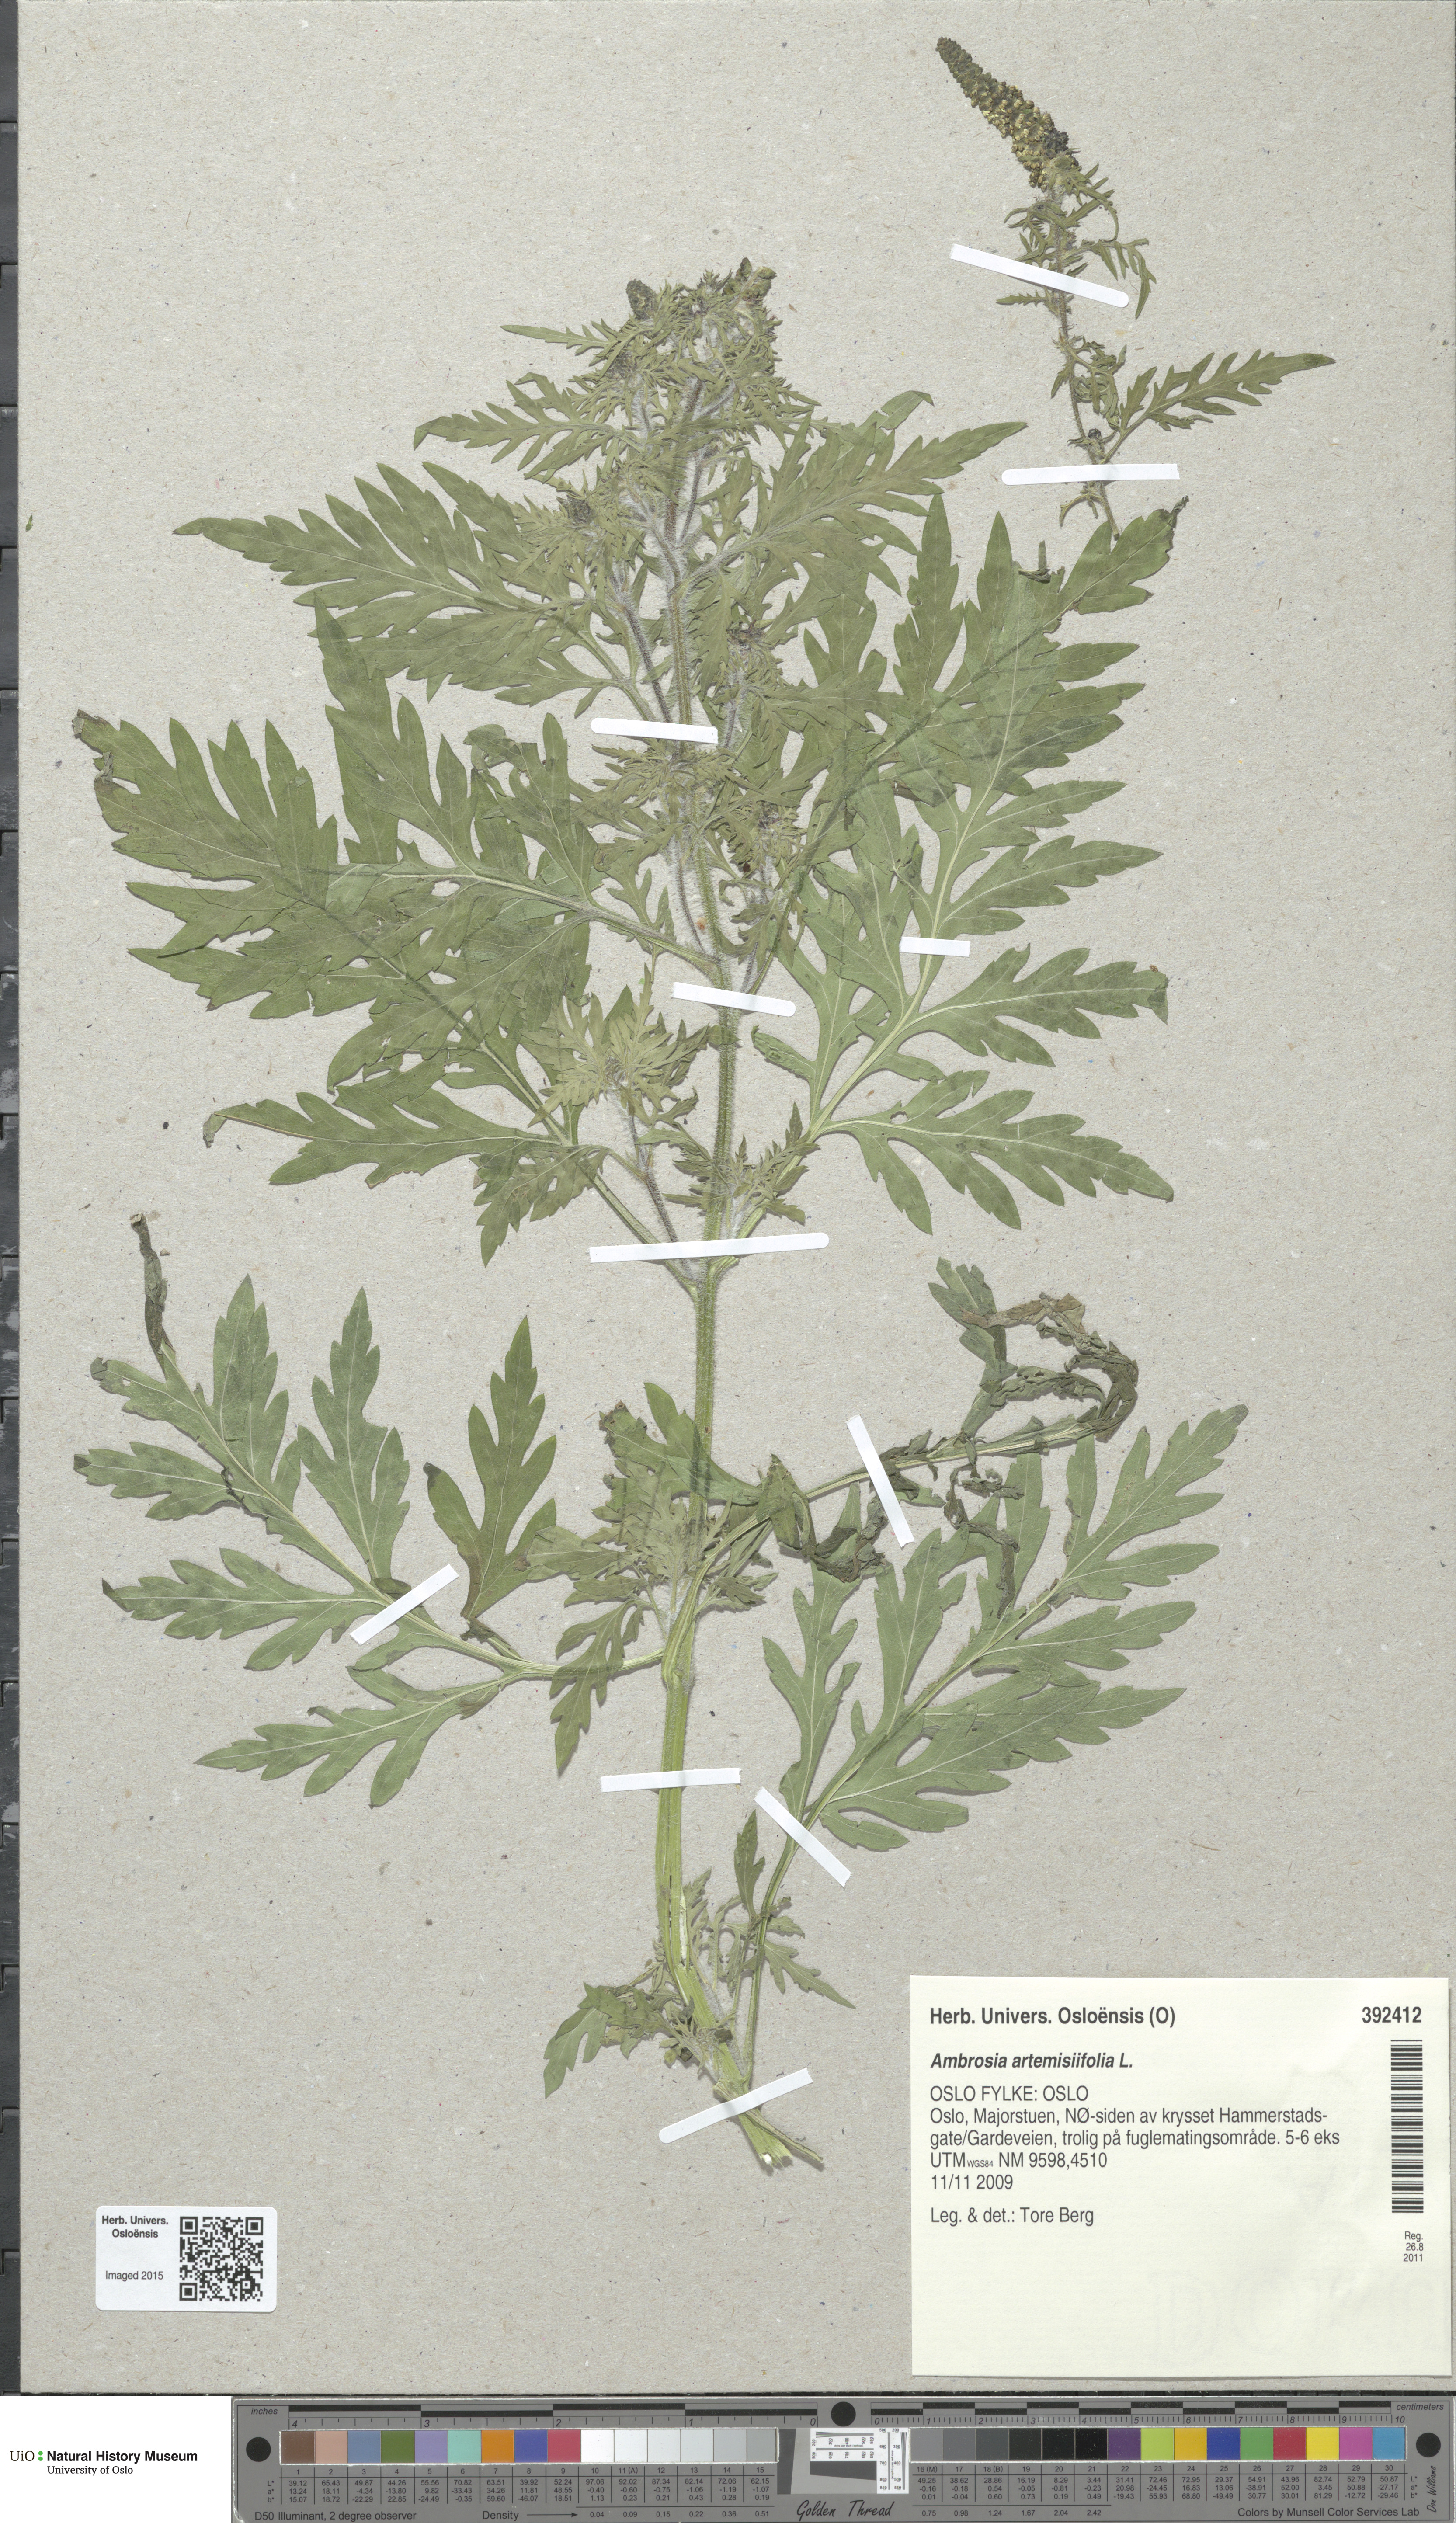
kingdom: Plantae
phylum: Tracheophyta
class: Magnoliopsida
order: Asterales
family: Asteraceae
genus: Ambrosia
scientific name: Ambrosia artemisiifolia
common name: Annual ragweed
